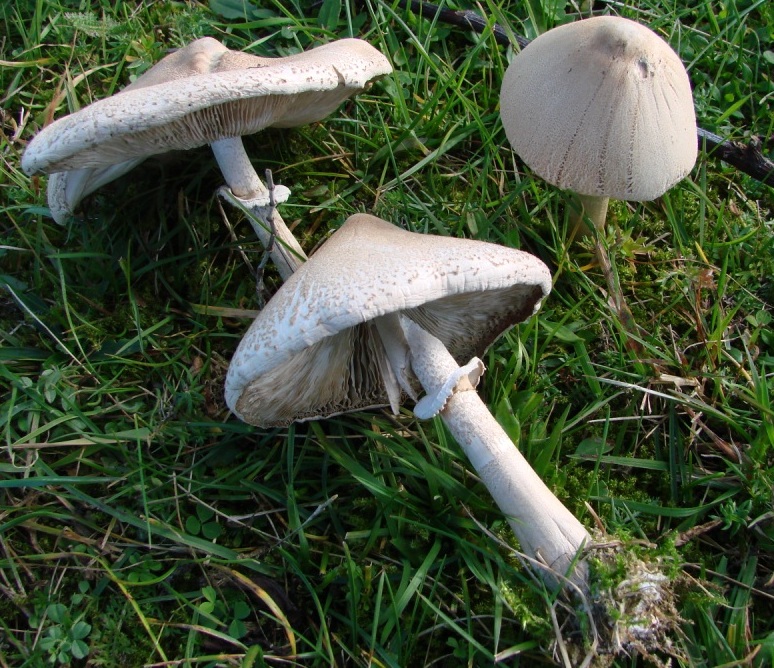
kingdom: Fungi
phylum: Basidiomycota
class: Agaricomycetes
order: Agaricales
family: Agaricaceae
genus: Macrolepiota
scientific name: Macrolepiota mastoidea
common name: puklet kæmpeparasolhat
